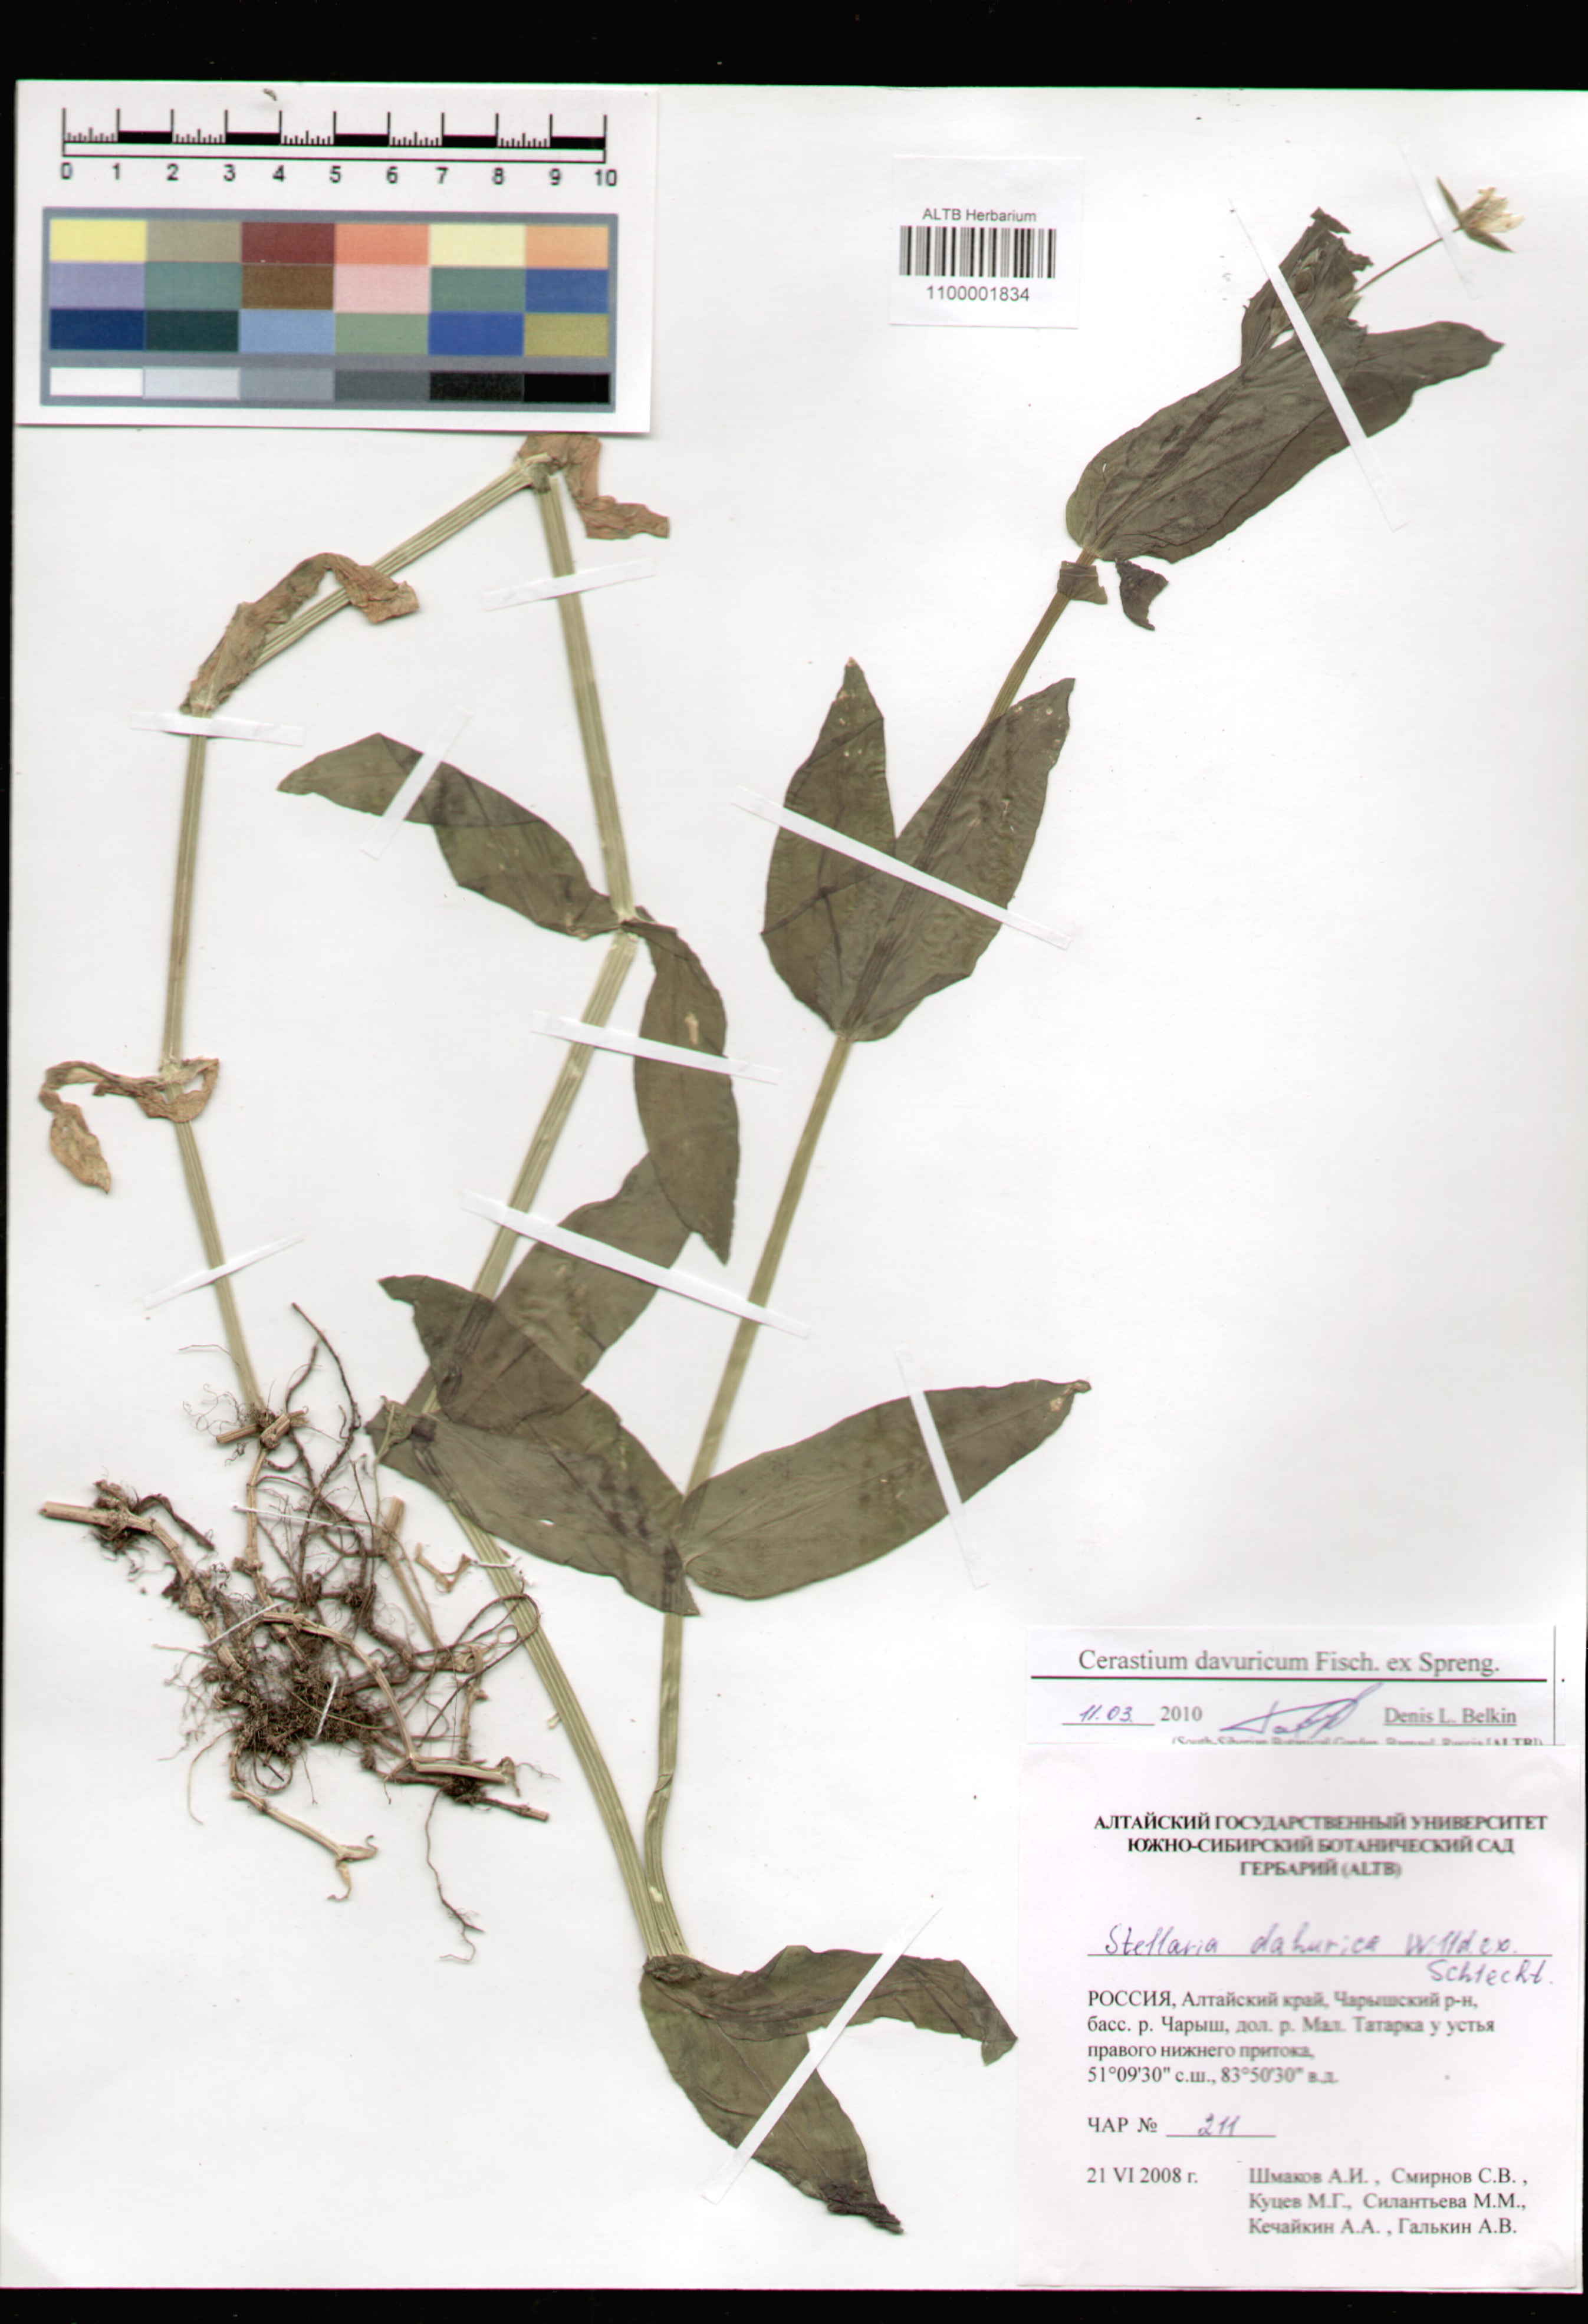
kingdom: Plantae
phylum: Tracheophyta
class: Magnoliopsida
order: Caryophyllales
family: Caryophyllaceae
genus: Dichodon
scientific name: Dichodon davuricum
